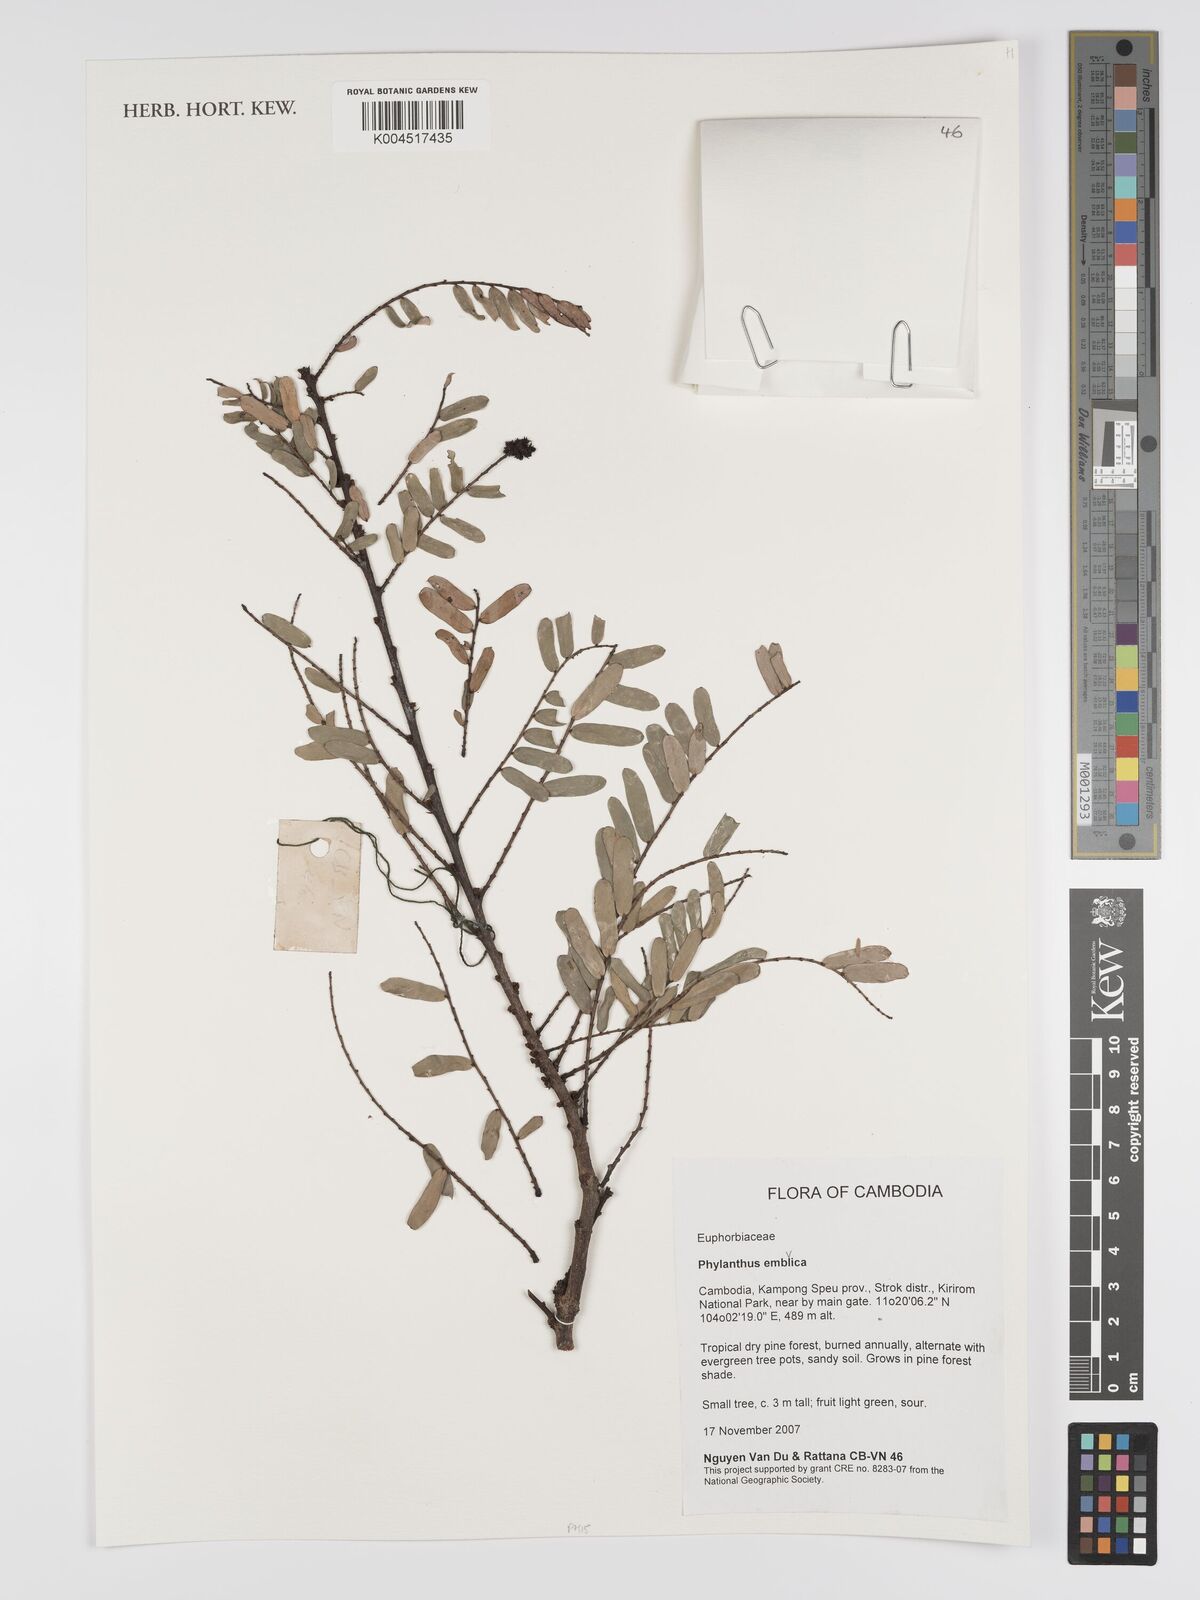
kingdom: Plantae
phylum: Tracheophyta
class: Magnoliopsida
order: Malpighiales
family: Phyllanthaceae
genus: Phyllanthus
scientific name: Phyllanthus emblica
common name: Indian gooseberry
